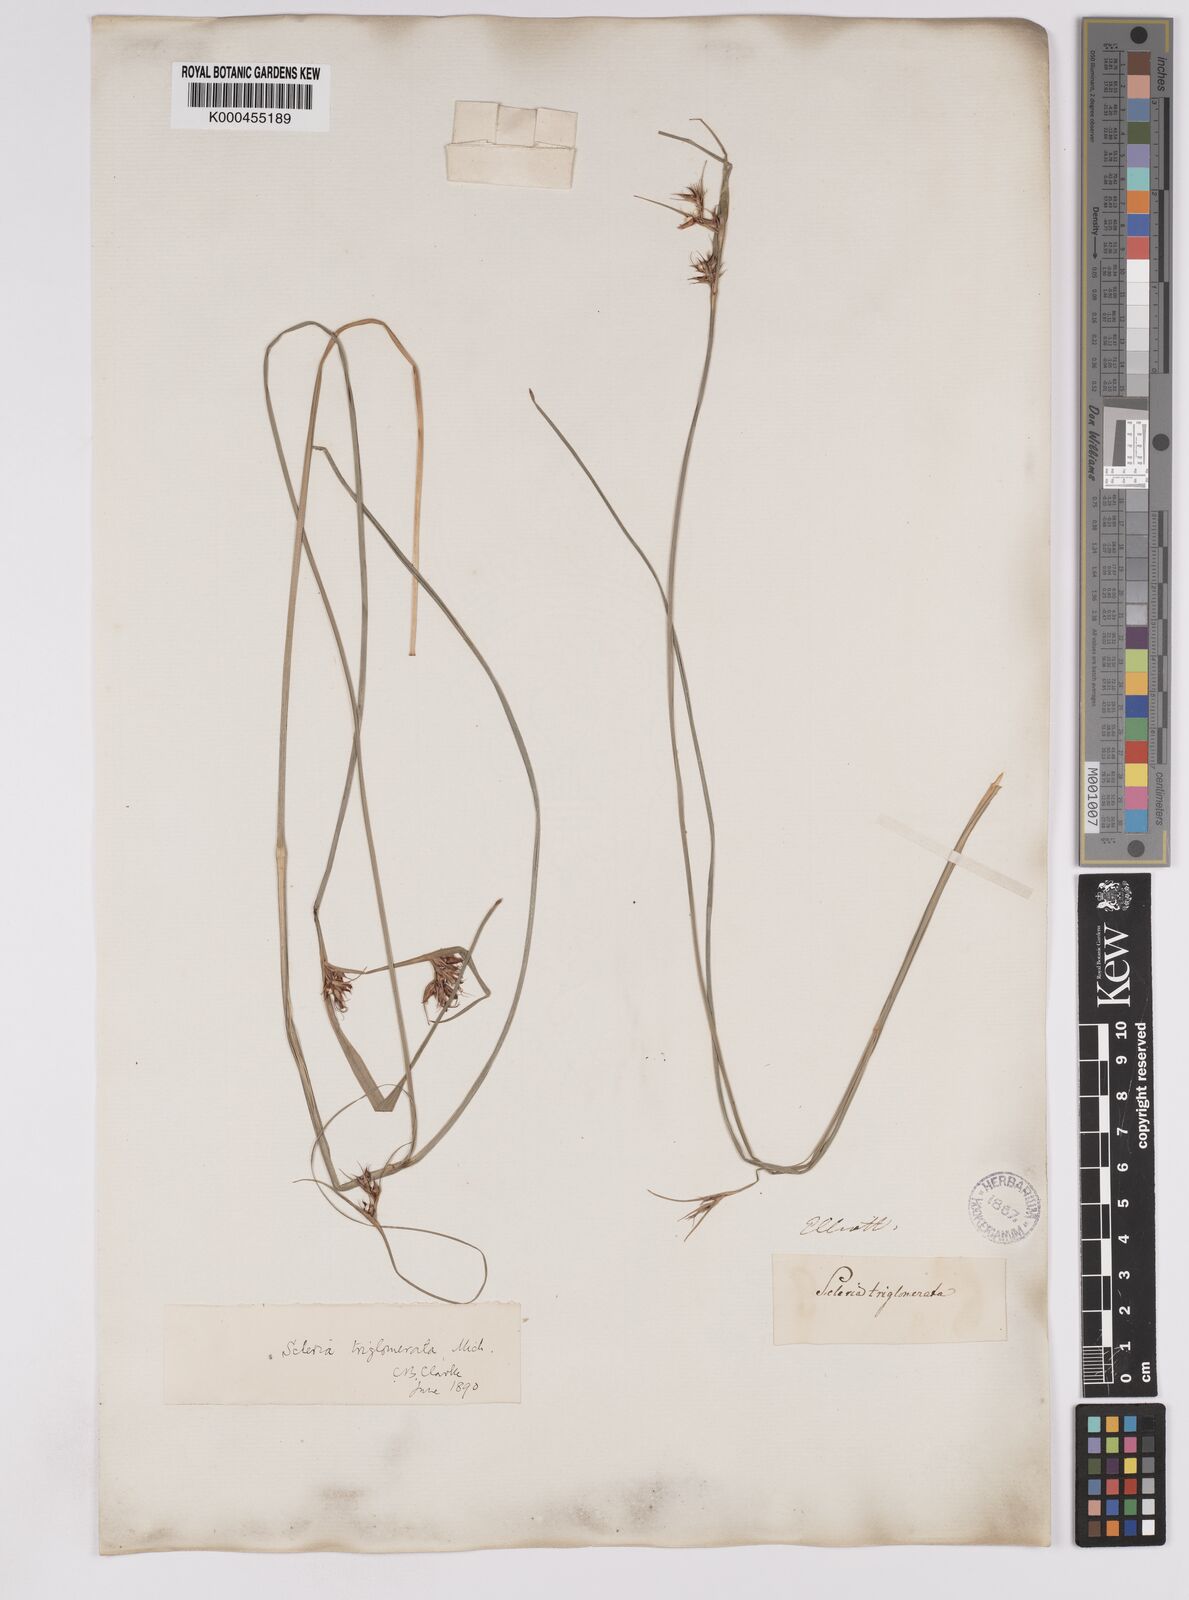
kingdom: Plantae
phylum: Tracheophyta
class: Liliopsida
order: Poales
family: Cyperaceae
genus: Scleria
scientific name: Scleria triglomerata
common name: Whip nutrush
